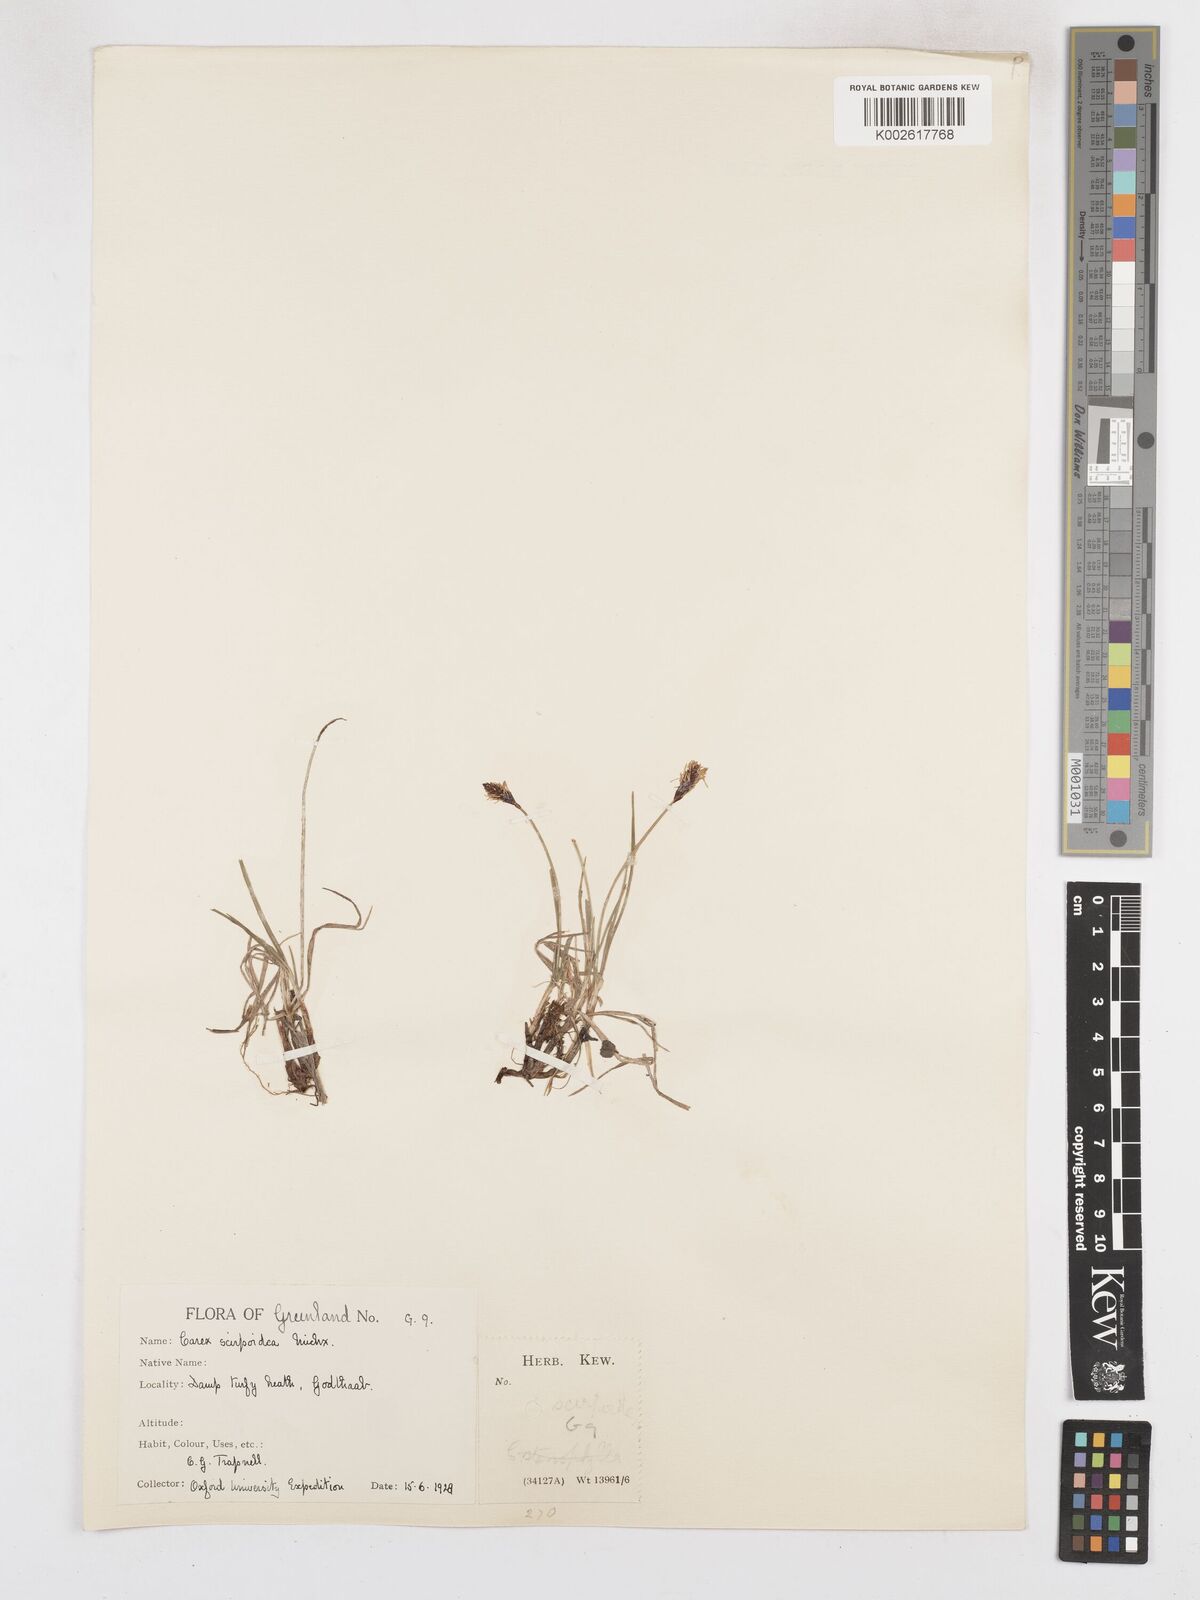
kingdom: Plantae
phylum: Tracheophyta
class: Liliopsida
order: Poales
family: Cyperaceae
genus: Carex
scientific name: Carex scirpoidea
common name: Canada single-spike sedge
